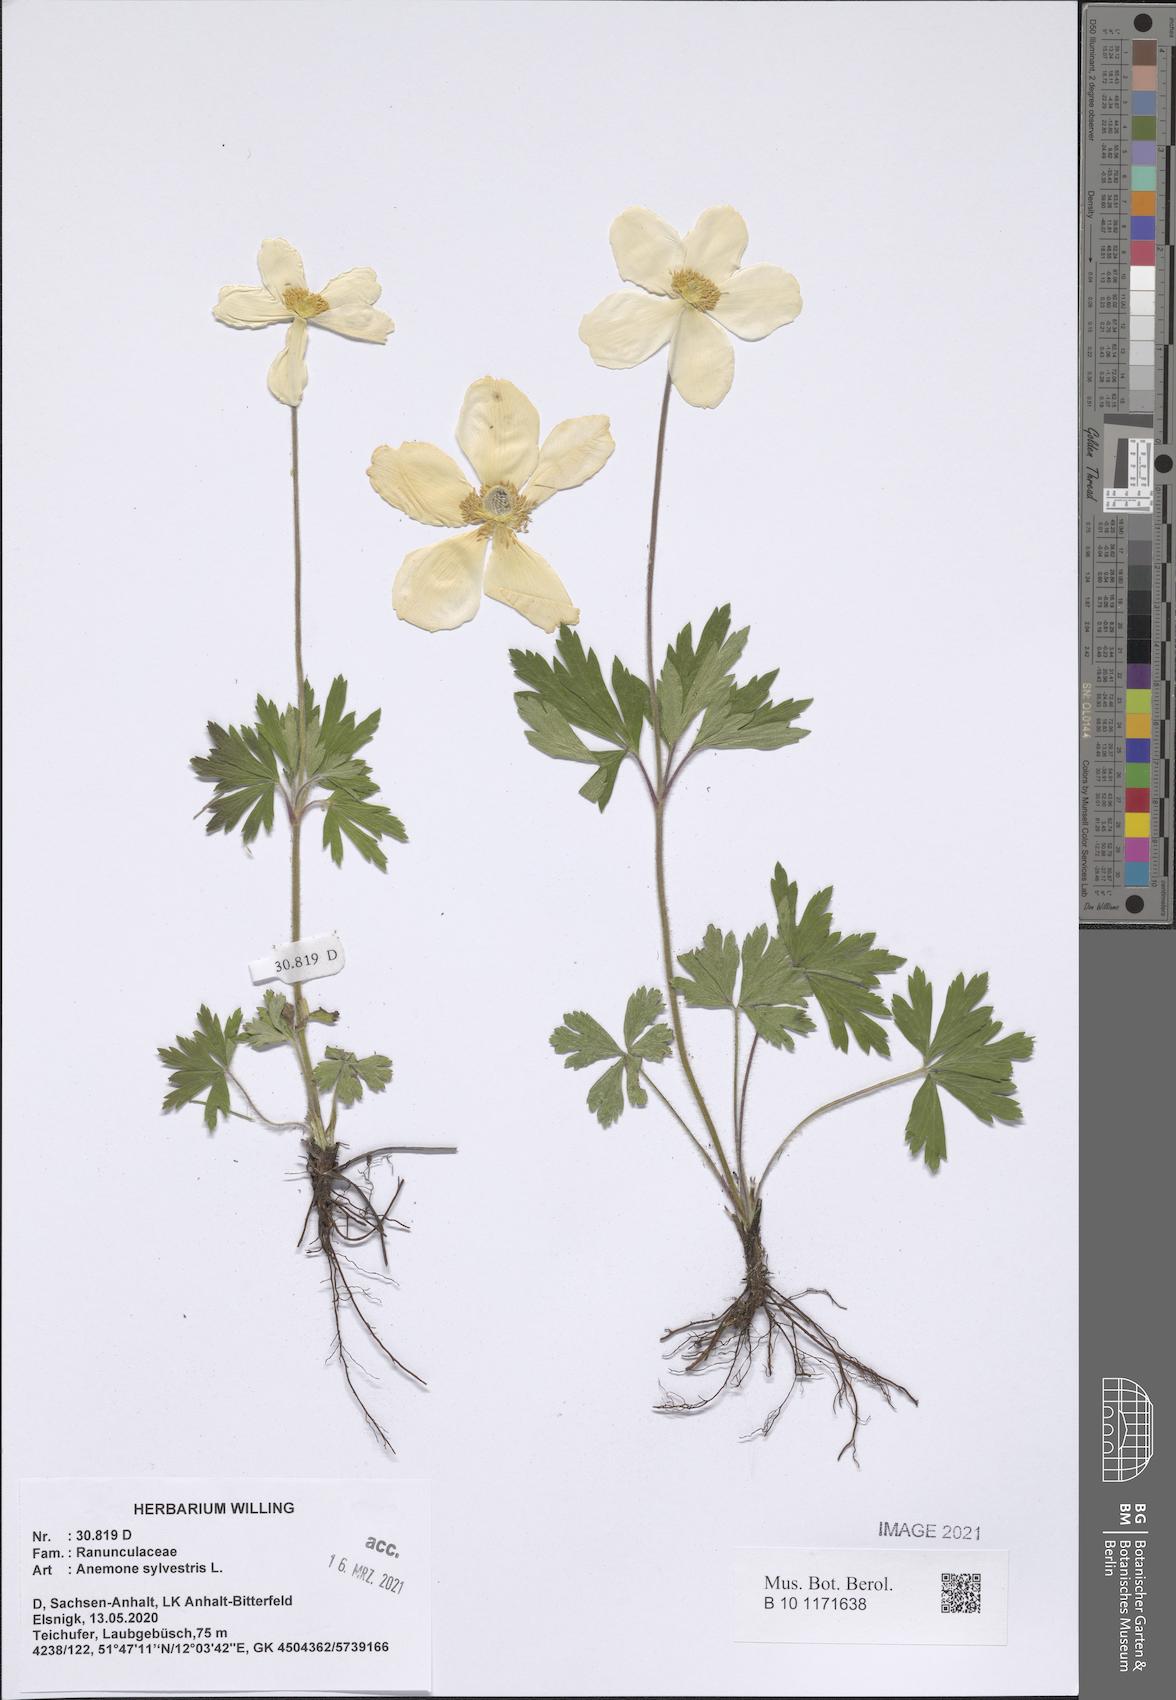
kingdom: Plantae
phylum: Tracheophyta
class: Magnoliopsida
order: Ranunculales
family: Ranunculaceae
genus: Anemone
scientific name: Anemone sylvestris
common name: Snowdrop anemone
